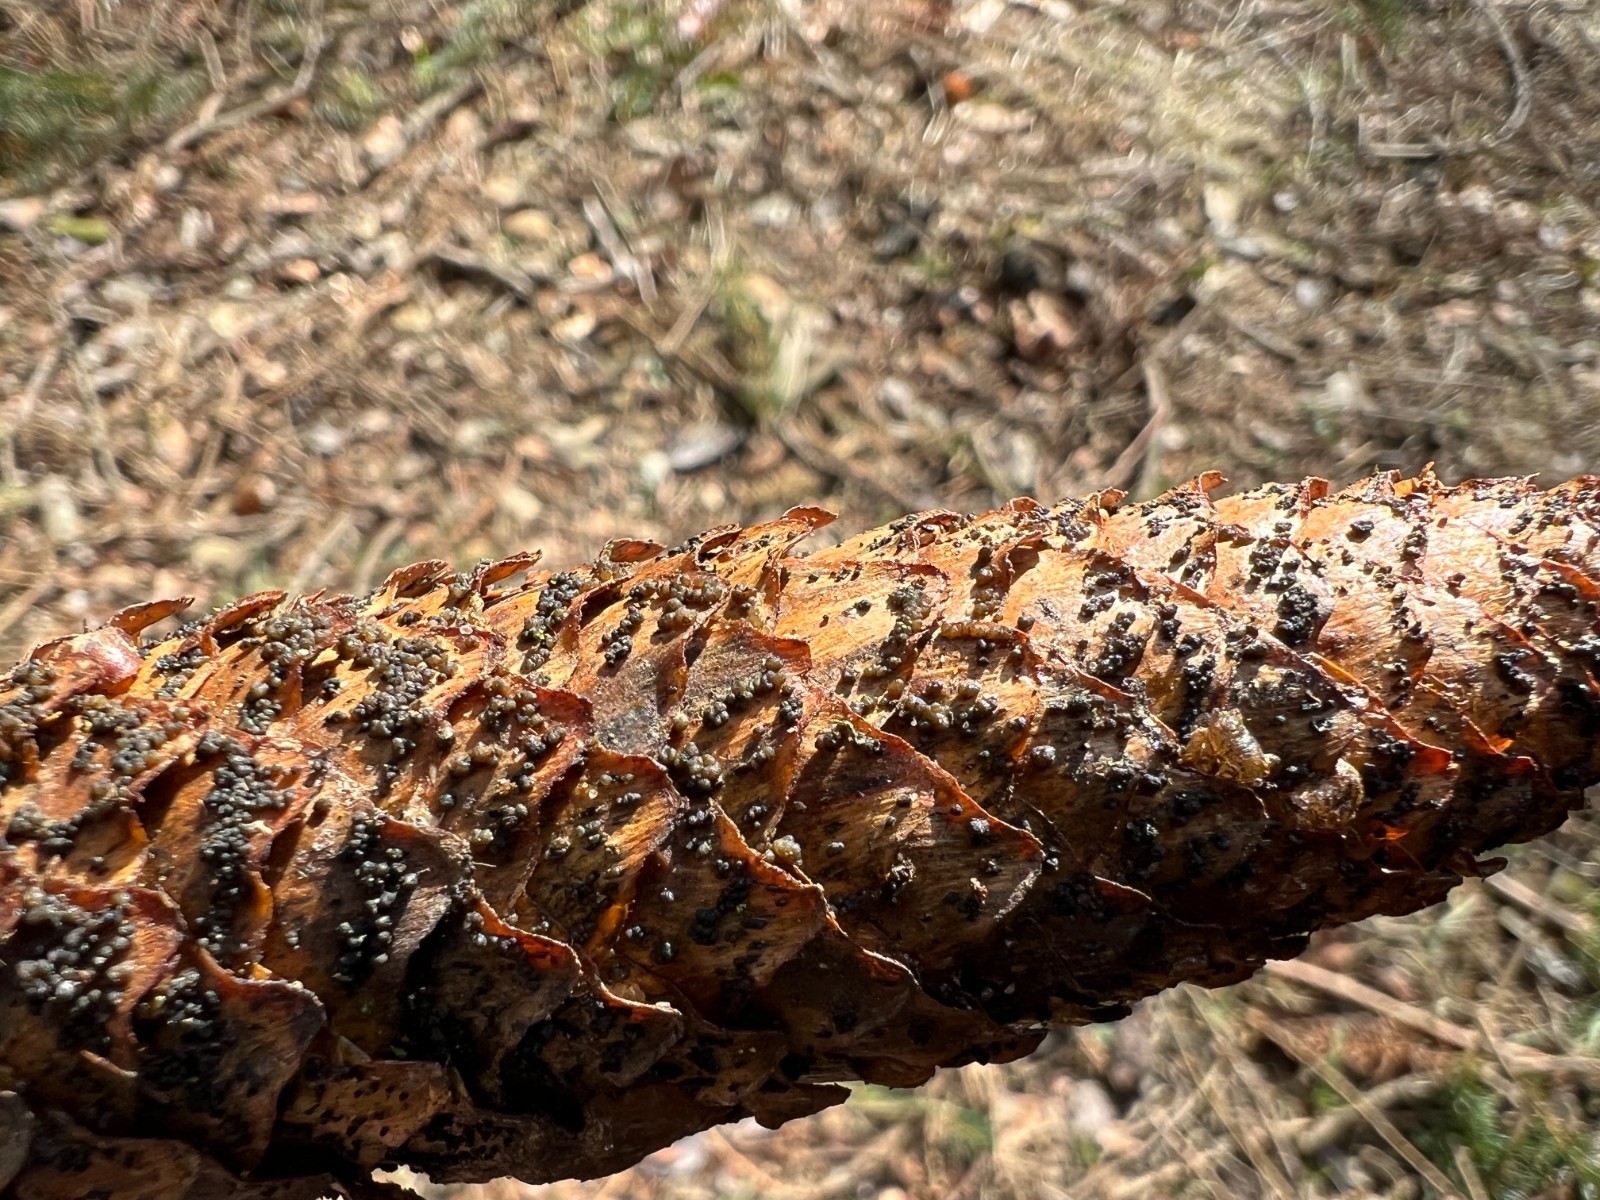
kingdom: Fungi
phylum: Ascomycota
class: Sordariomycetes
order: Diaporthales
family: Gnomoniaceae
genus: Sirococcus
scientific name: Sirococcus conigenus
